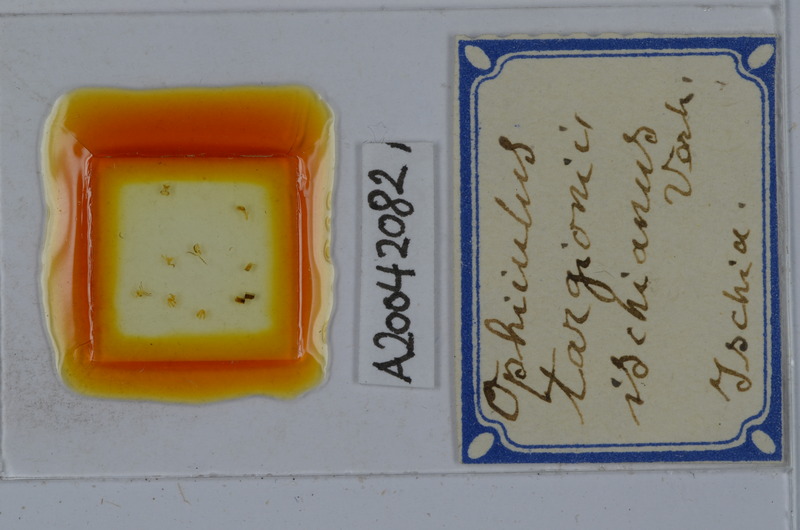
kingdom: Animalia
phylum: Arthropoda
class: Diplopoda
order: Julida
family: Julidae
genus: Ophyiulus
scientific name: Ophyiulus targionii
